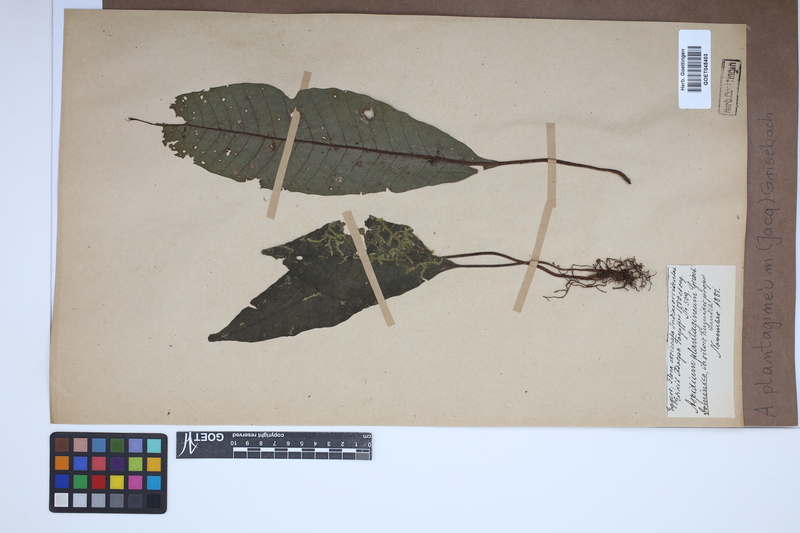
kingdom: Plantae
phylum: Tracheophyta
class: Polypodiopsida
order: Polypodiales
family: Lomariopsidaceae
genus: Dracoglossum
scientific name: Dracoglossum plantagineum
